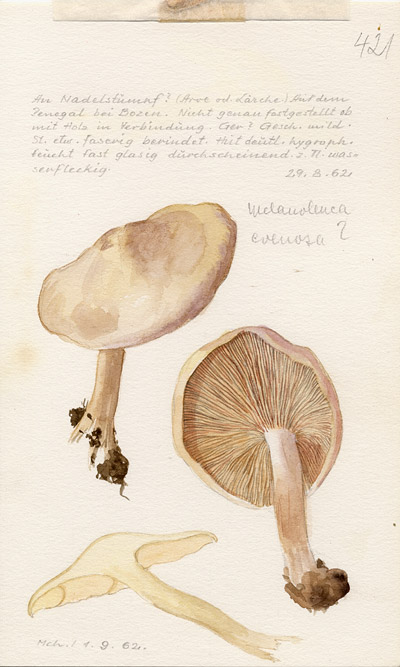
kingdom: Fungi
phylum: Basidiomycota
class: Agaricomycetes
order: Agaricales
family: Tricholomataceae
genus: Tricholoma
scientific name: Tricholoma evenosum
